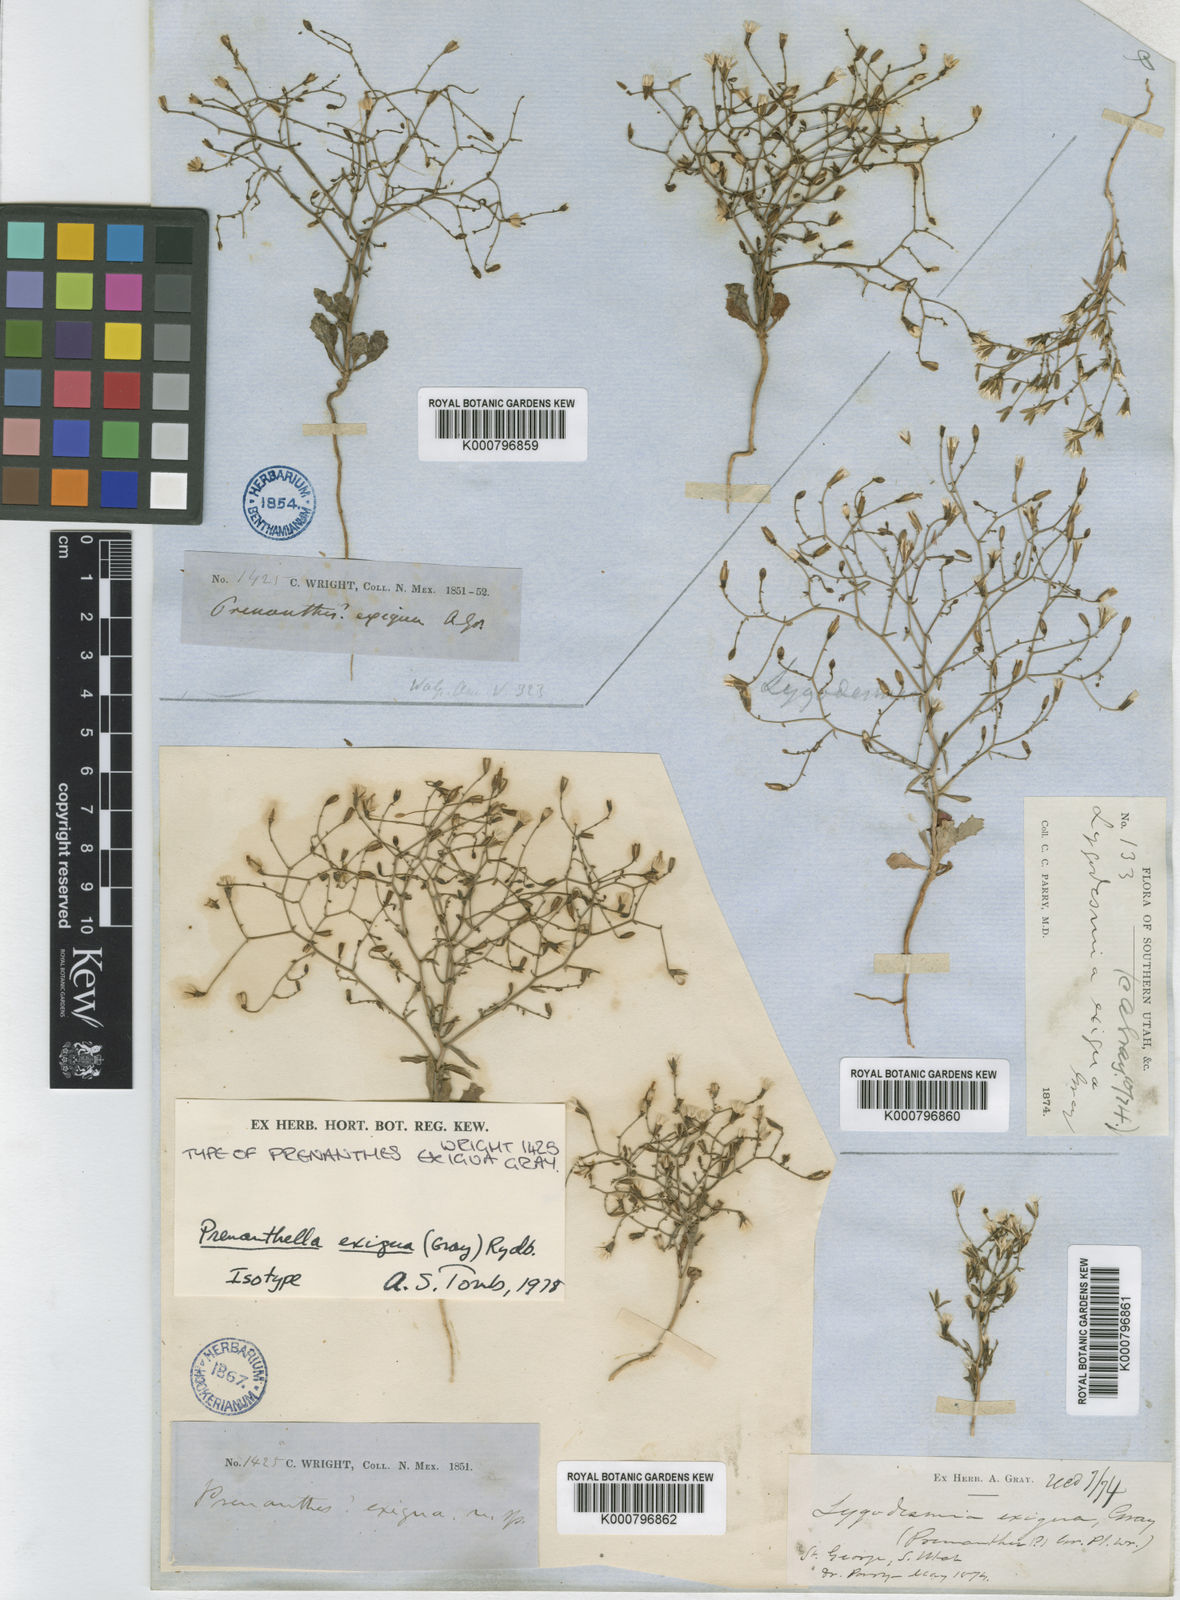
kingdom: Plantae
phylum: Tracheophyta
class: Magnoliopsida
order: Asterales
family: Asteraceae
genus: Lygodesmia
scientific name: Lygodesmia exigua
